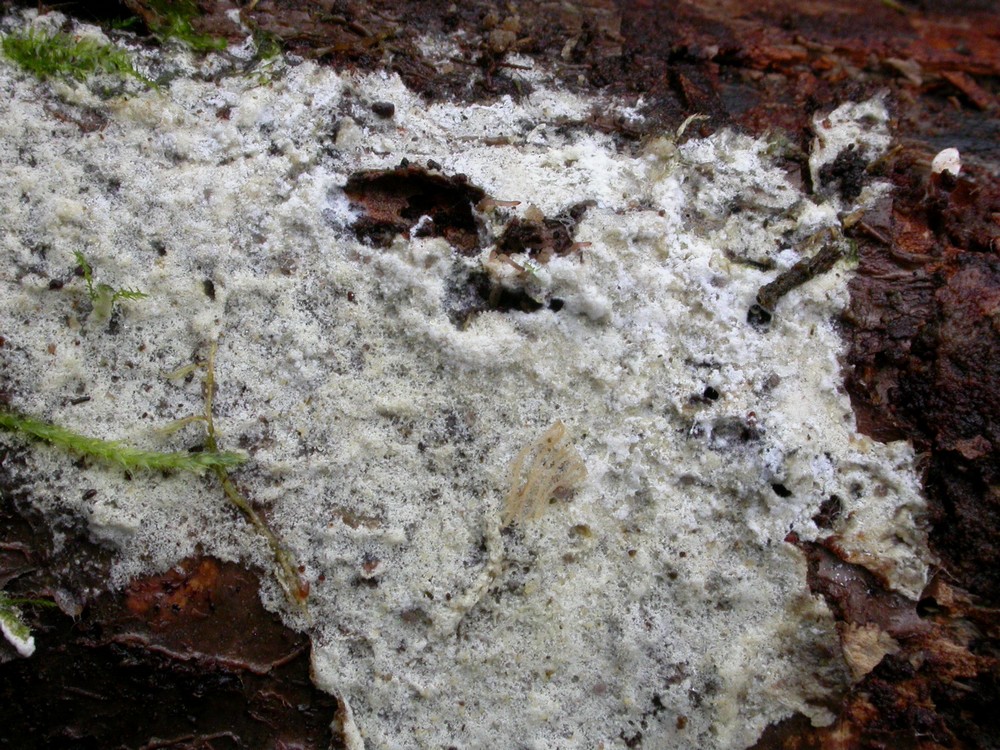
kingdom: Fungi
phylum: Basidiomycota
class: Agaricomycetes
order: Atheliales
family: Atheliaceae
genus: Amphinema
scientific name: Amphinema byssoides
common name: almindelig rodhinde
